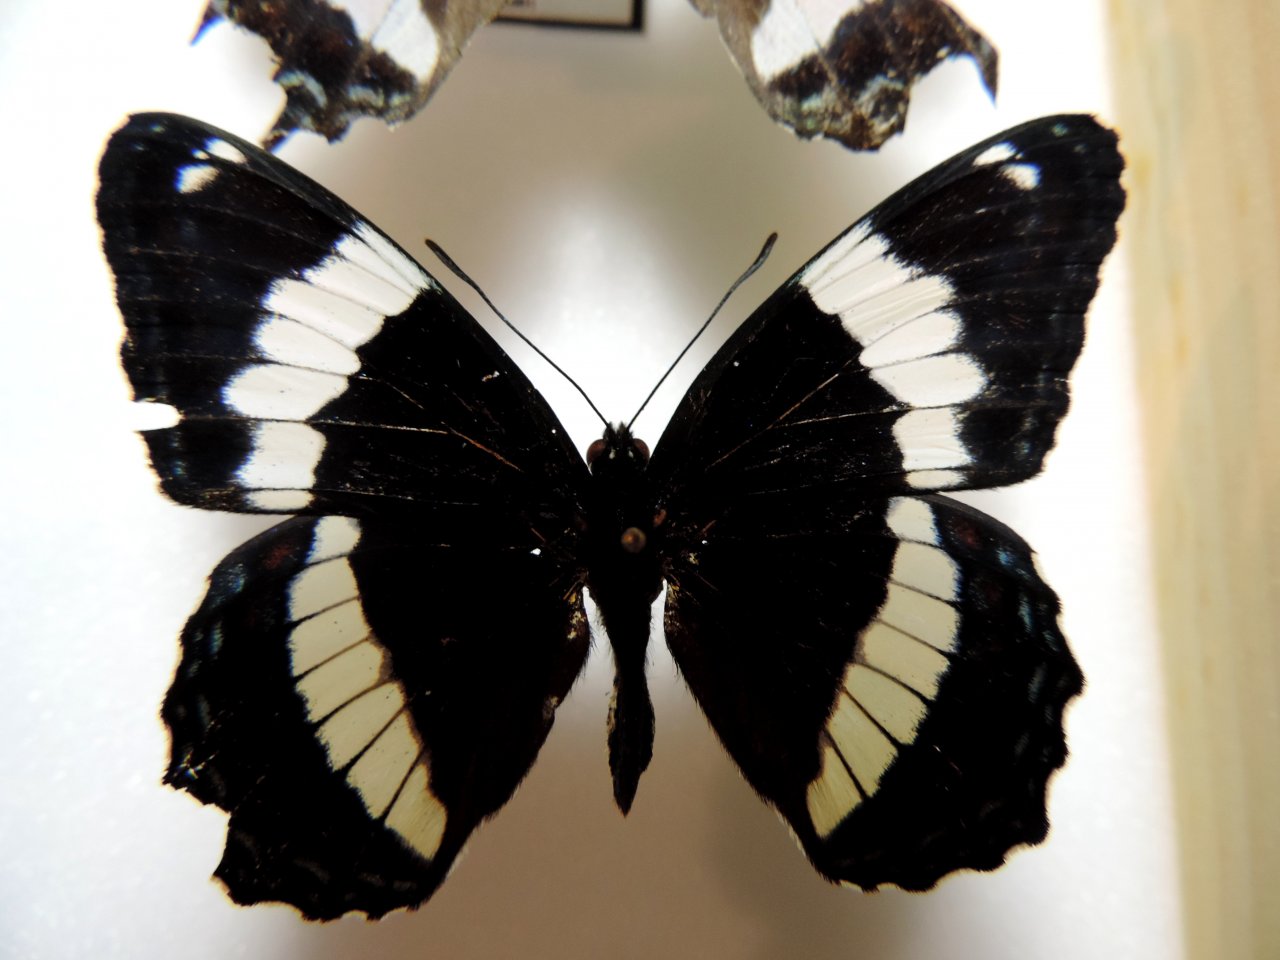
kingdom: Animalia
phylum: Arthropoda
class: Insecta
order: Lepidoptera
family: Nymphalidae
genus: Limenitis
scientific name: Limenitis arthemis
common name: Red-spotted Admiral
